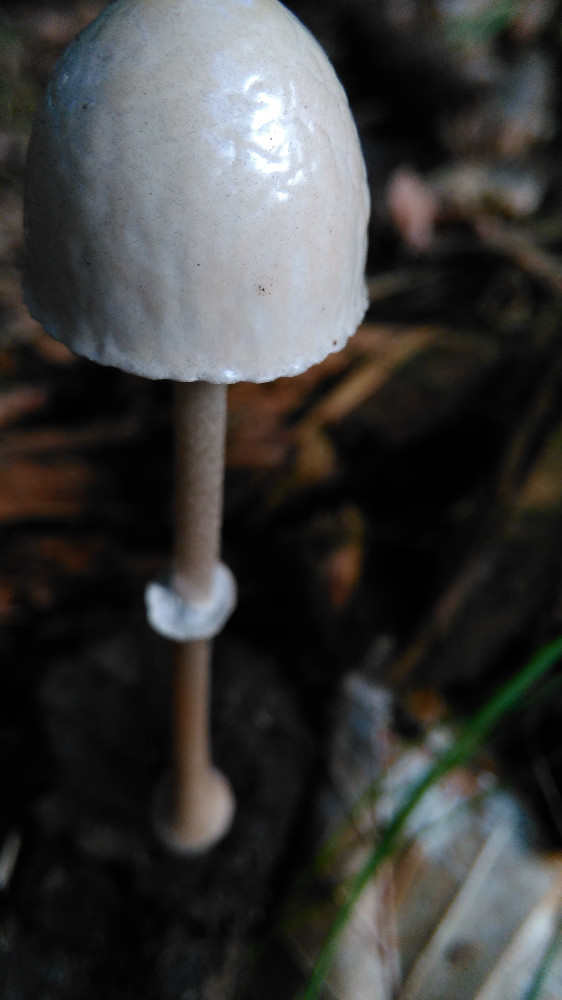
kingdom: Fungi
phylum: Basidiomycota
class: Agaricomycetes
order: Agaricales
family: Bolbitiaceae
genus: Panaeolus
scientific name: Panaeolus semiovatus
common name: ring-glanshat
